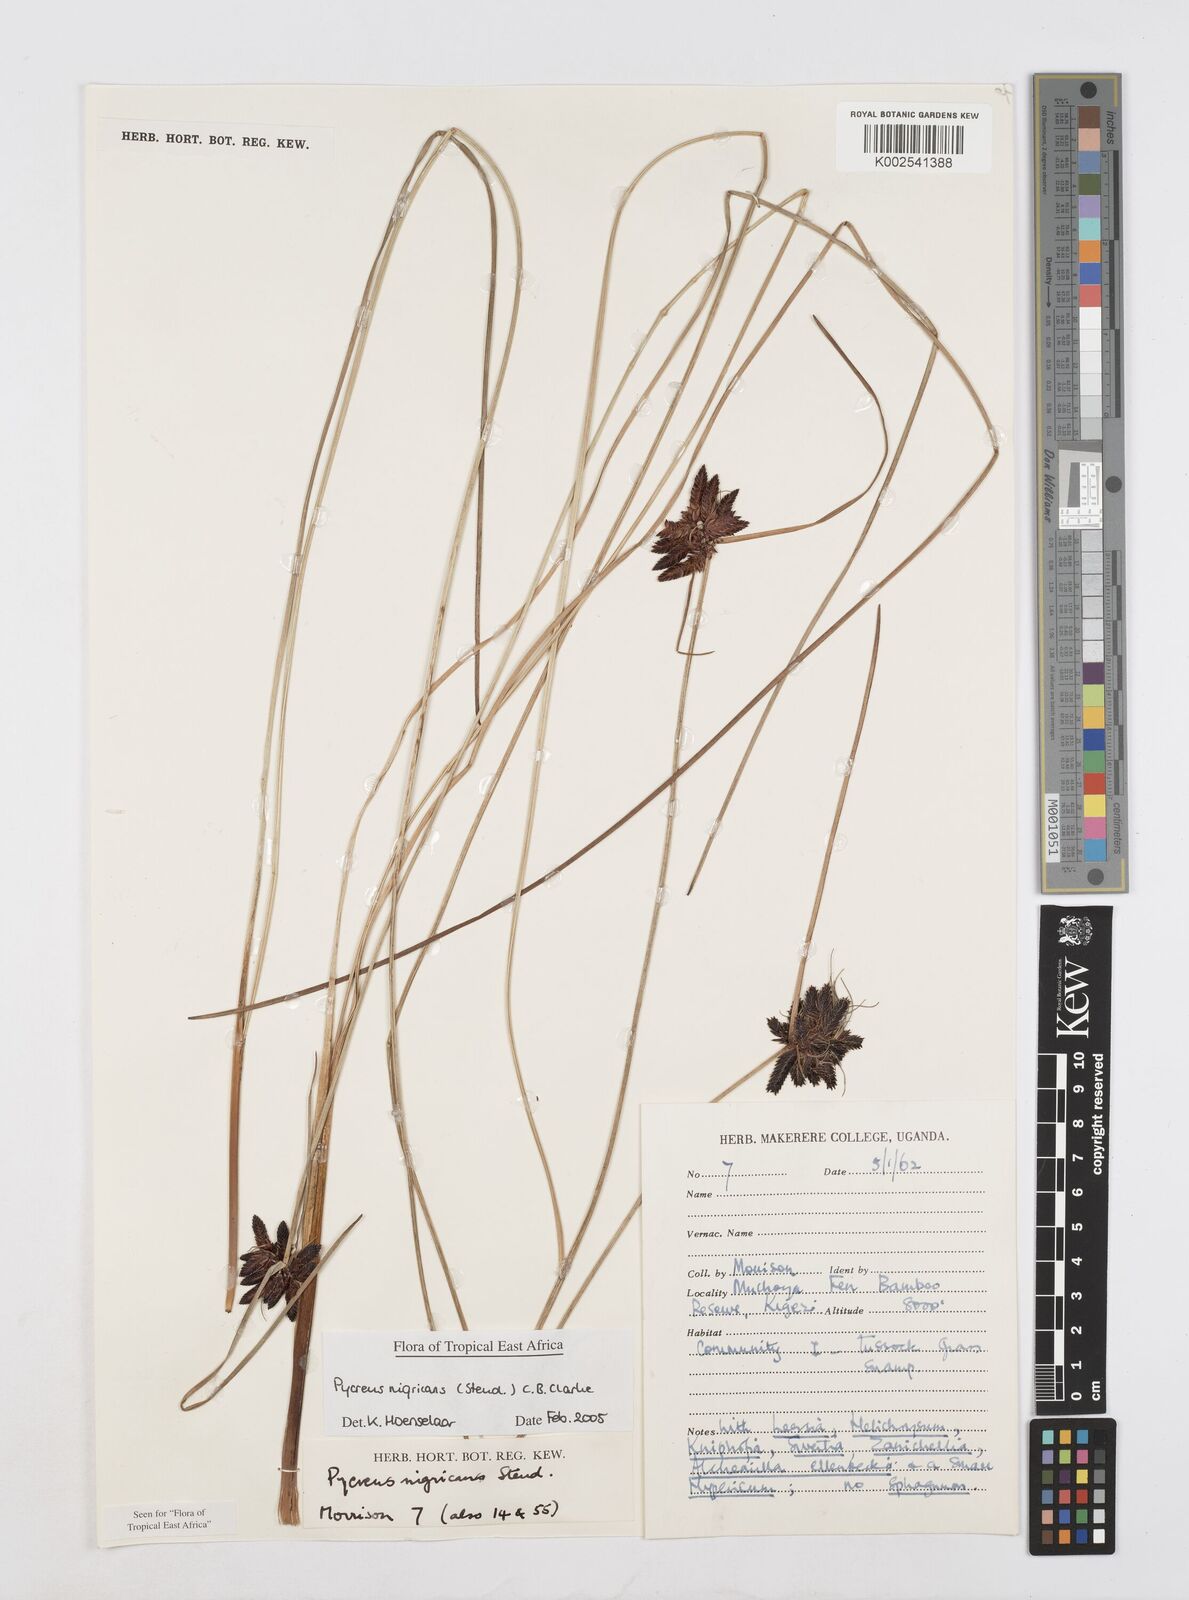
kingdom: Plantae
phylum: Tracheophyta
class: Liliopsida
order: Poales
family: Cyperaceae
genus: Cyperus
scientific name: Cyperus nigricans
